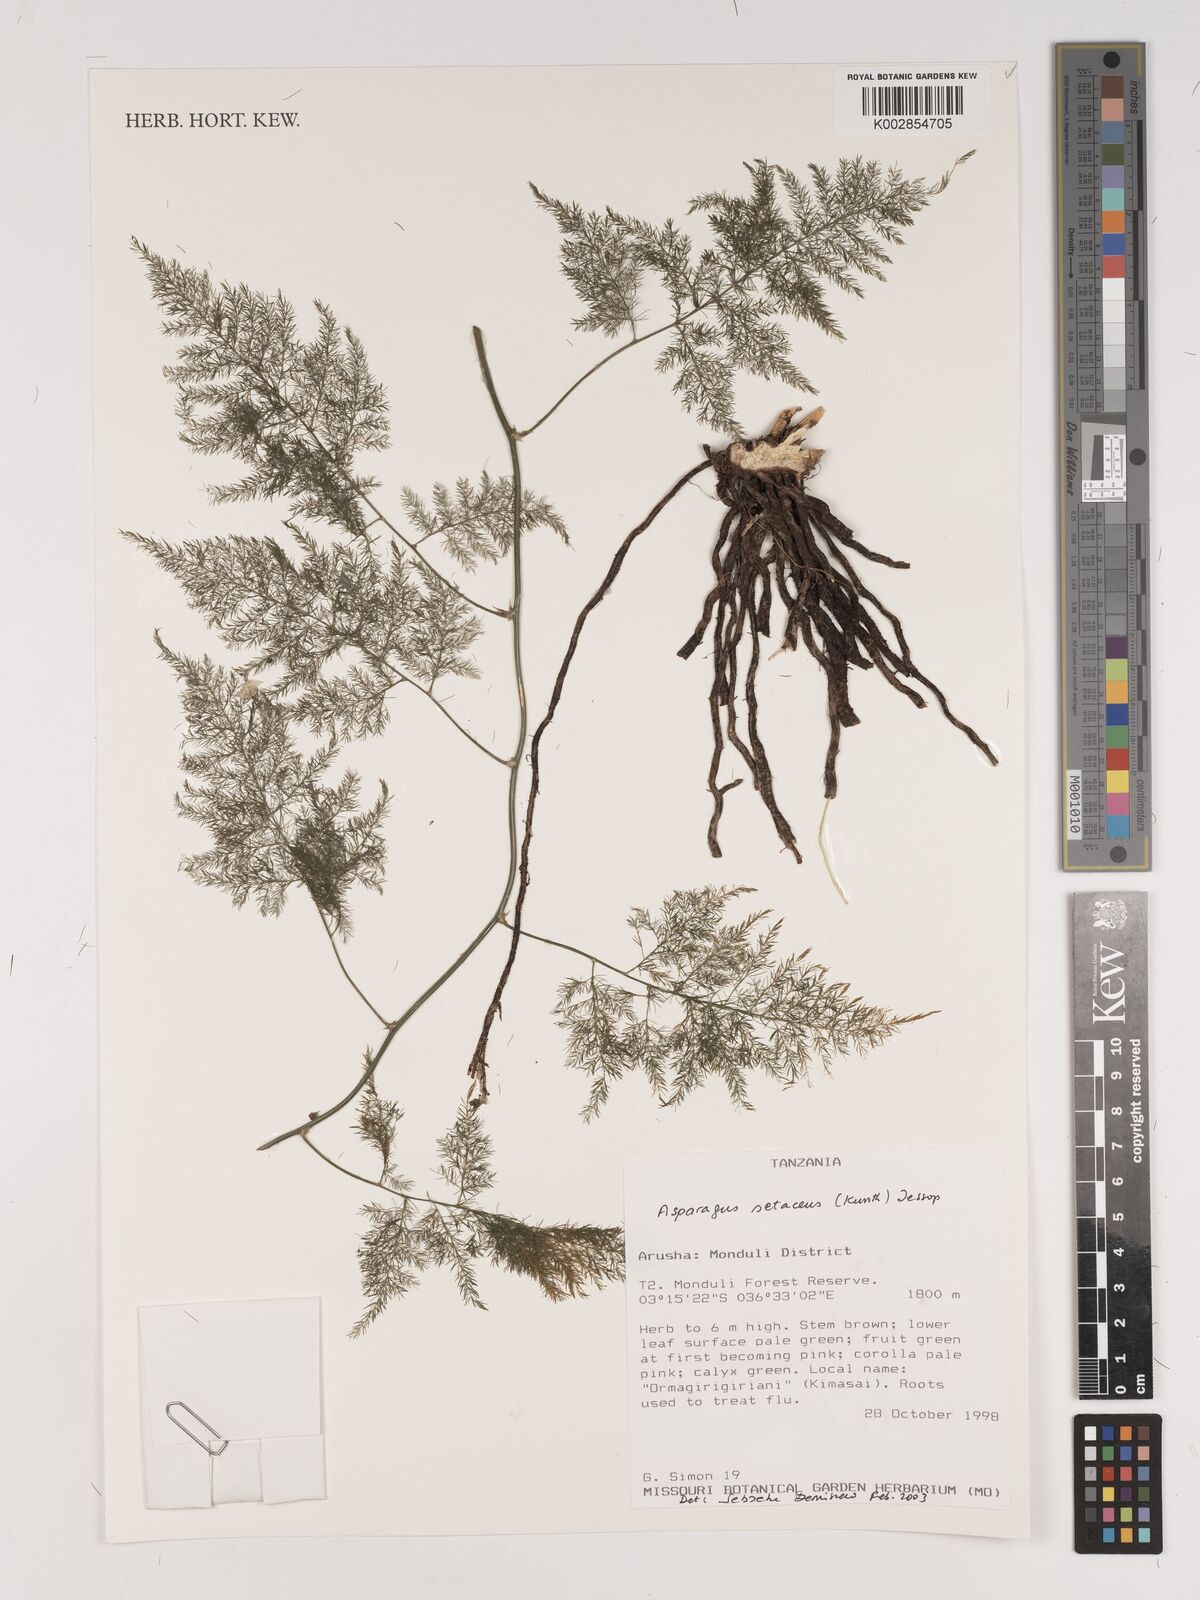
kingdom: Plantae
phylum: Tracheophyta
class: Liliopsida
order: Asparagales
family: Asparagaceae
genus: Asparagus
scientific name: Asparagus setaceus
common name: Common asparagus fern
